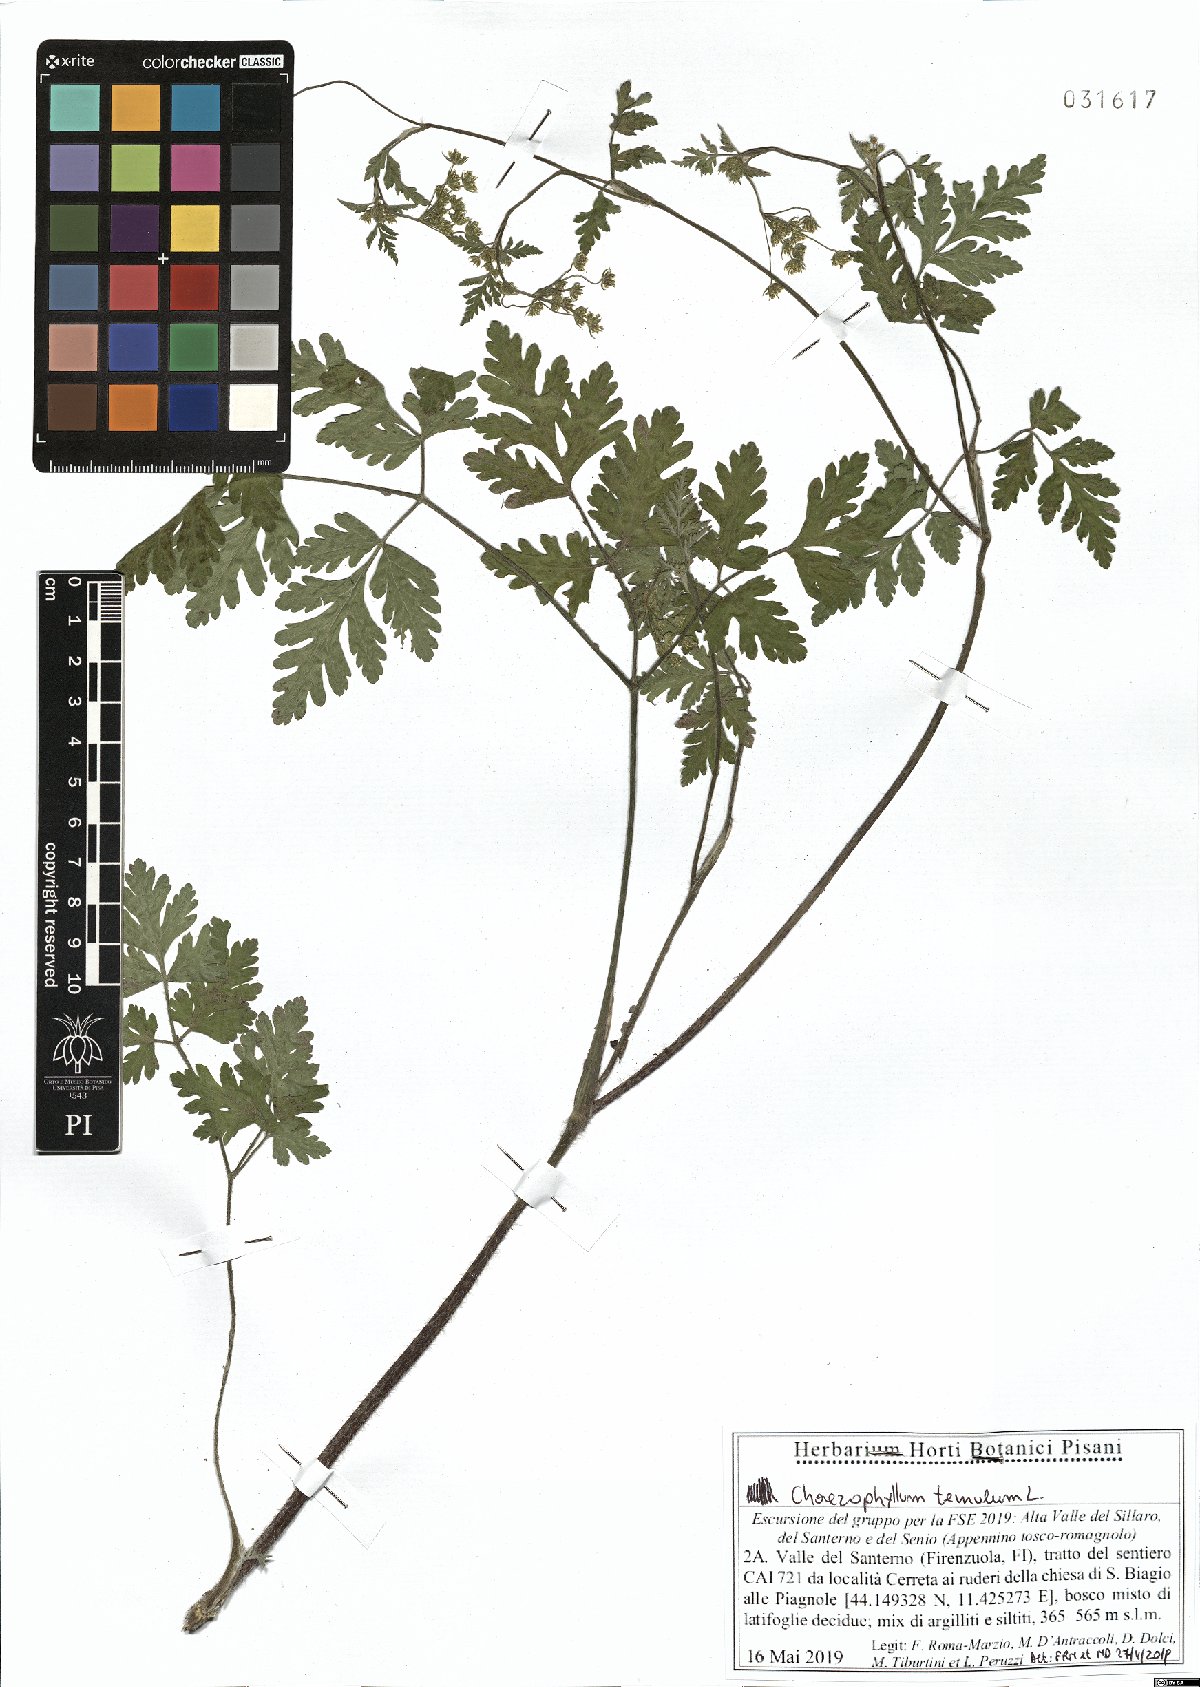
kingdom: Plantae
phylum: Tracheophyta
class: Magnoliopsida
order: Apiales
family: Apiaceae
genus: Chaerophyllum
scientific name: Chaerophyllum temulum
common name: Rough chervil
